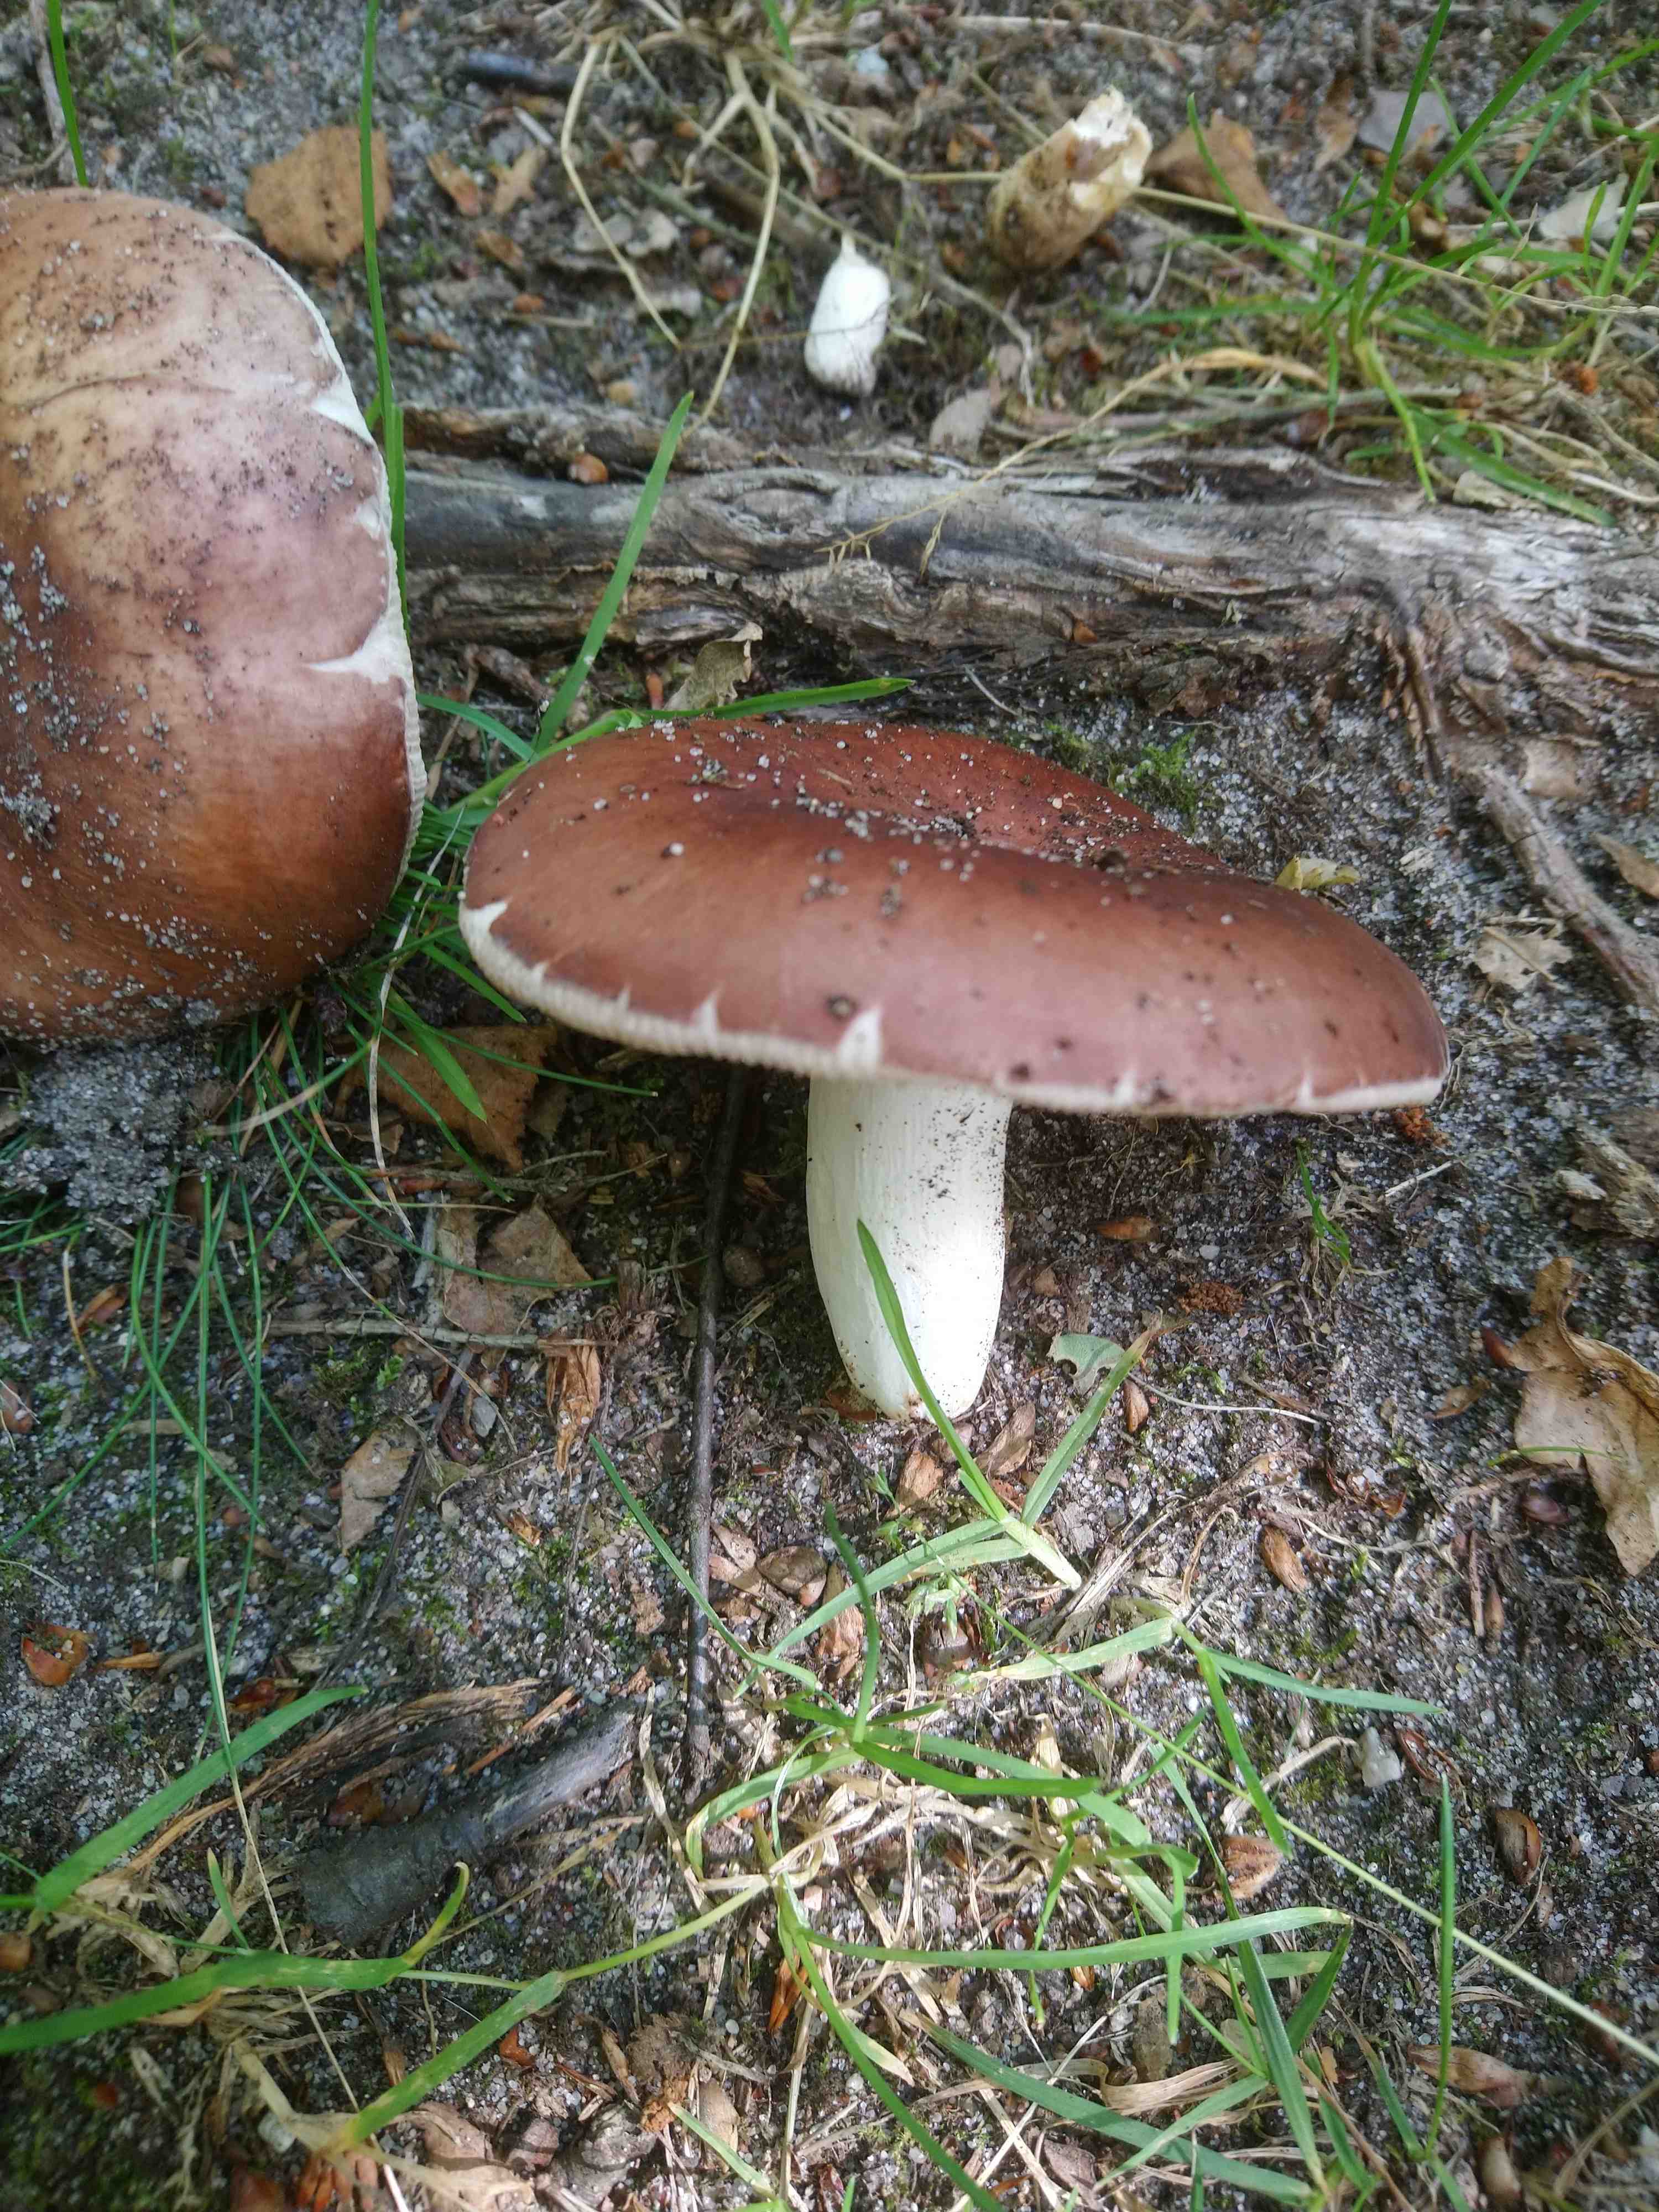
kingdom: Fungi
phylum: Basidiomycota
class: Agaricomycetes
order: Russulales
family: Russulaceae
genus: Russula
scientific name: Russula vesca
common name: spiselig skørhat
